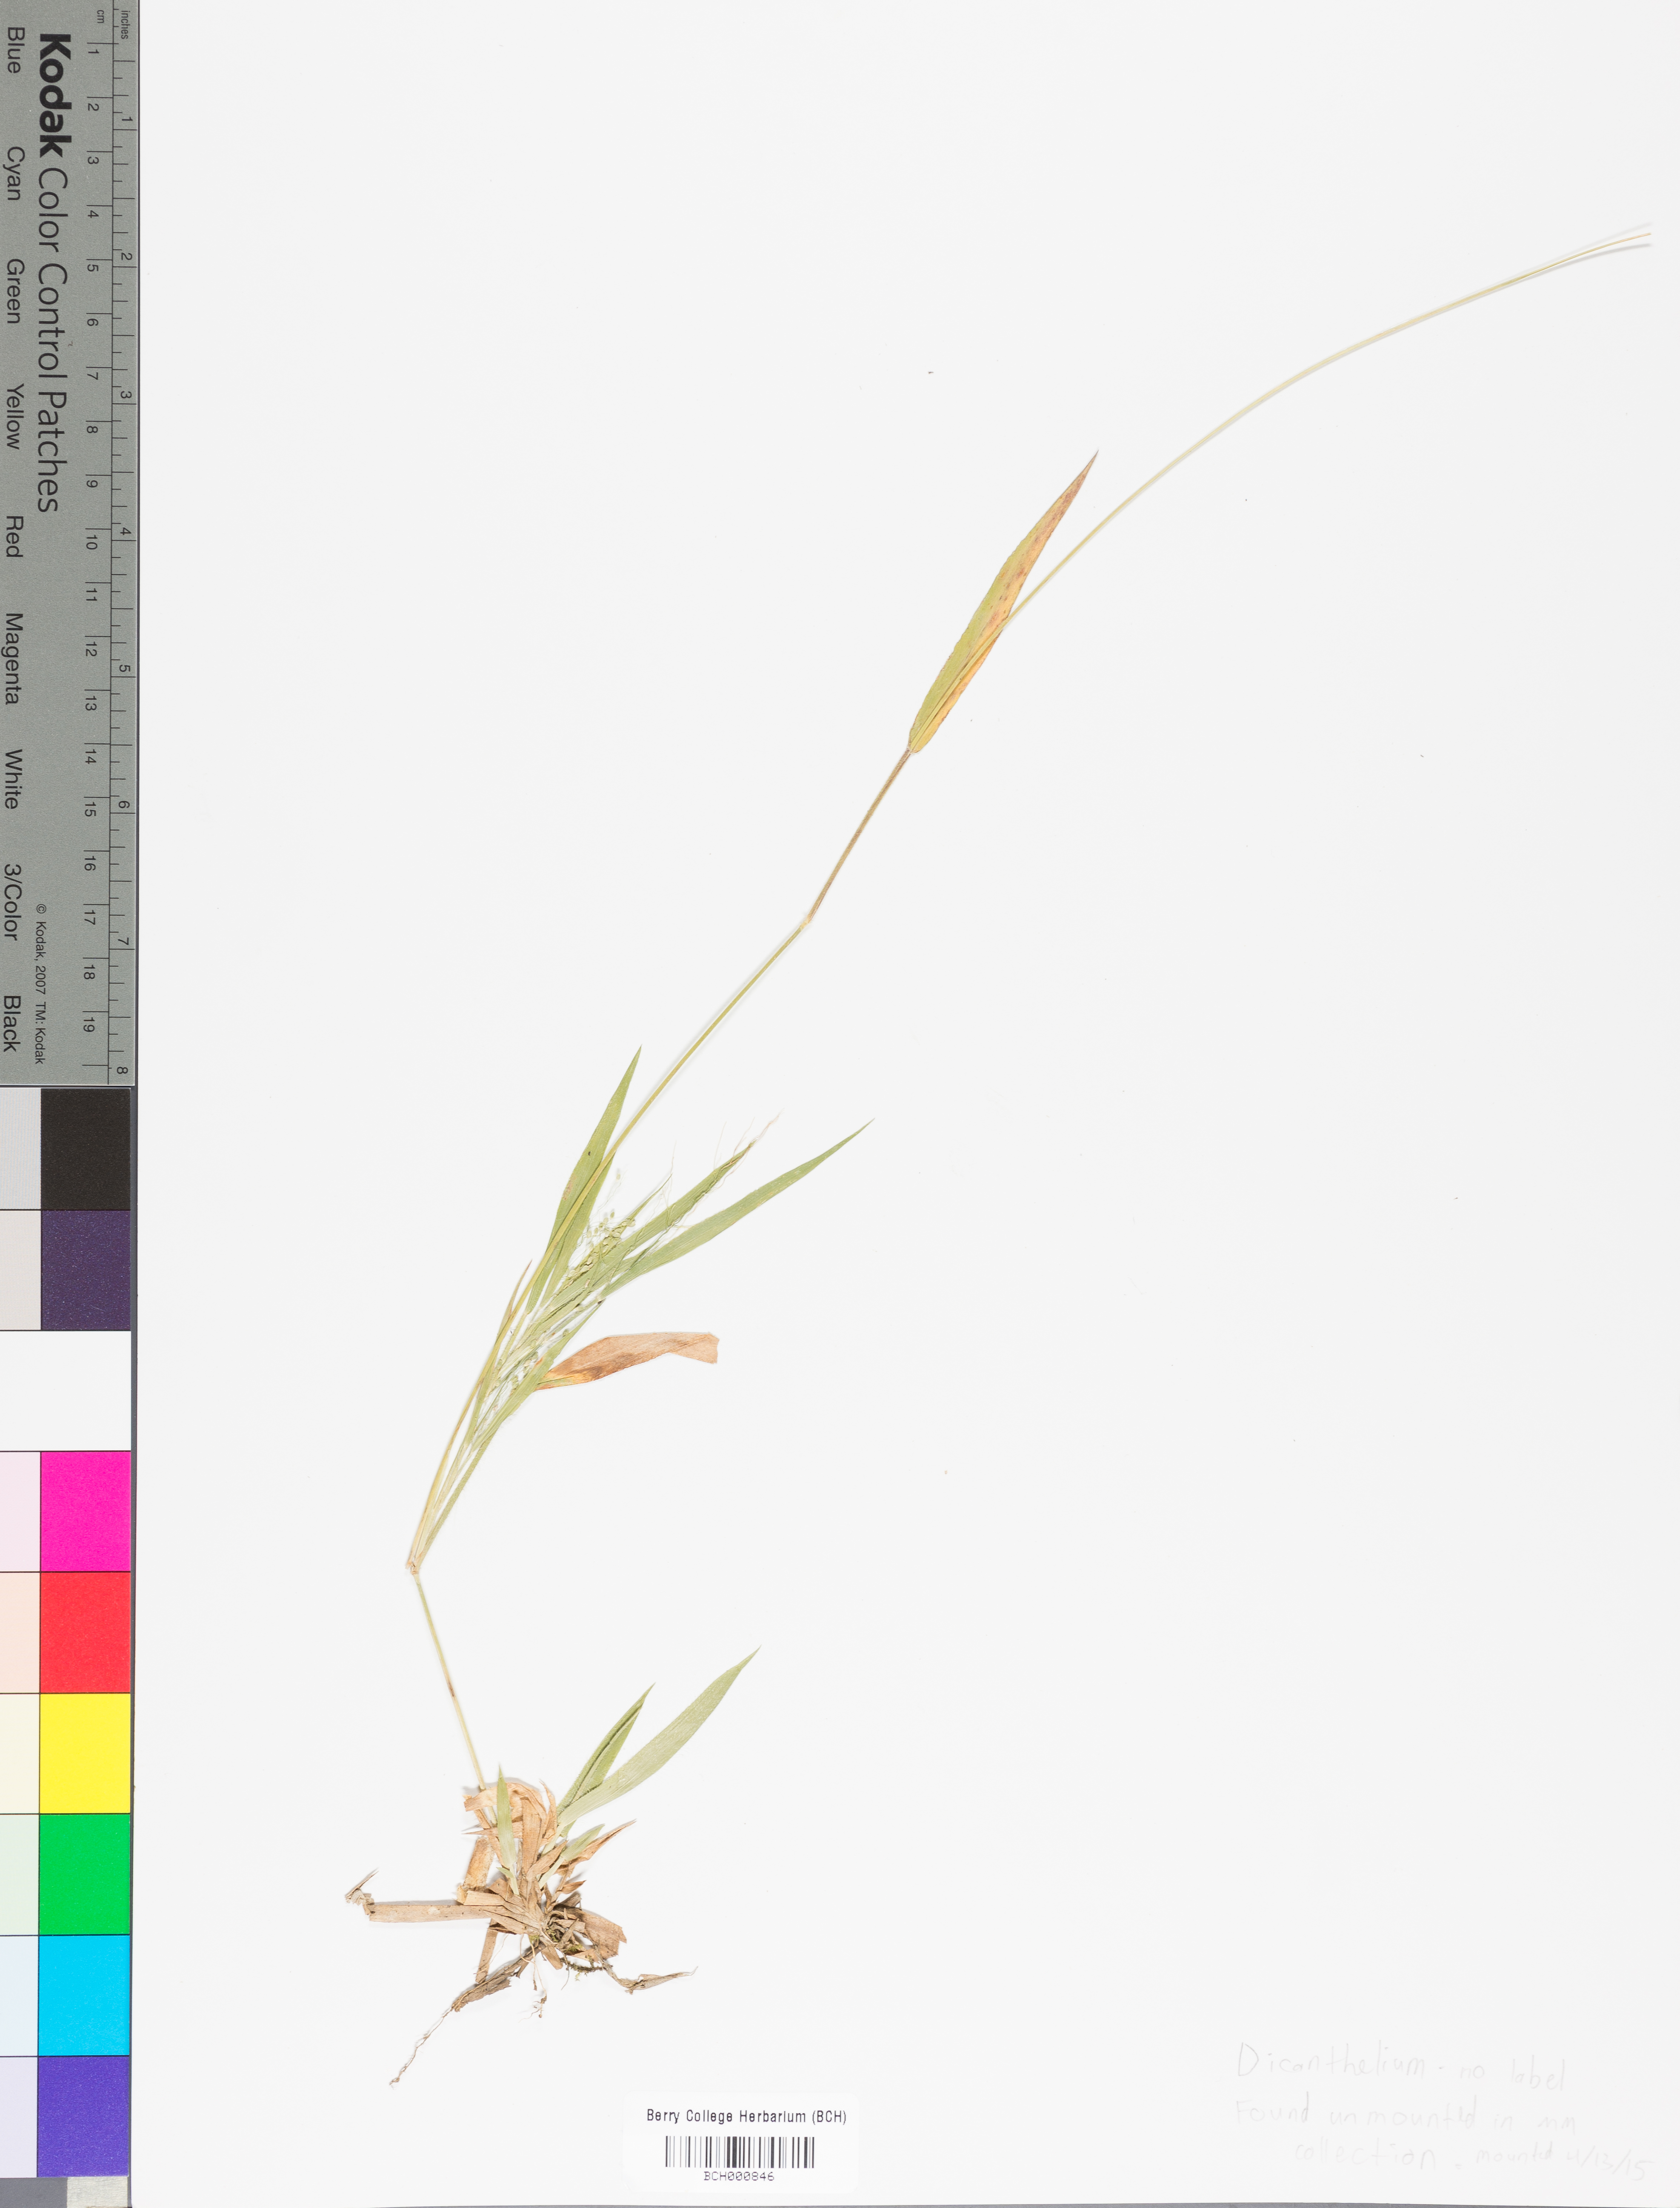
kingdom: Plantae
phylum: Tracheophyta
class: Liliopsida
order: Poales
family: Poaceae
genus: Dichanthelium
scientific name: Dichanthelium
